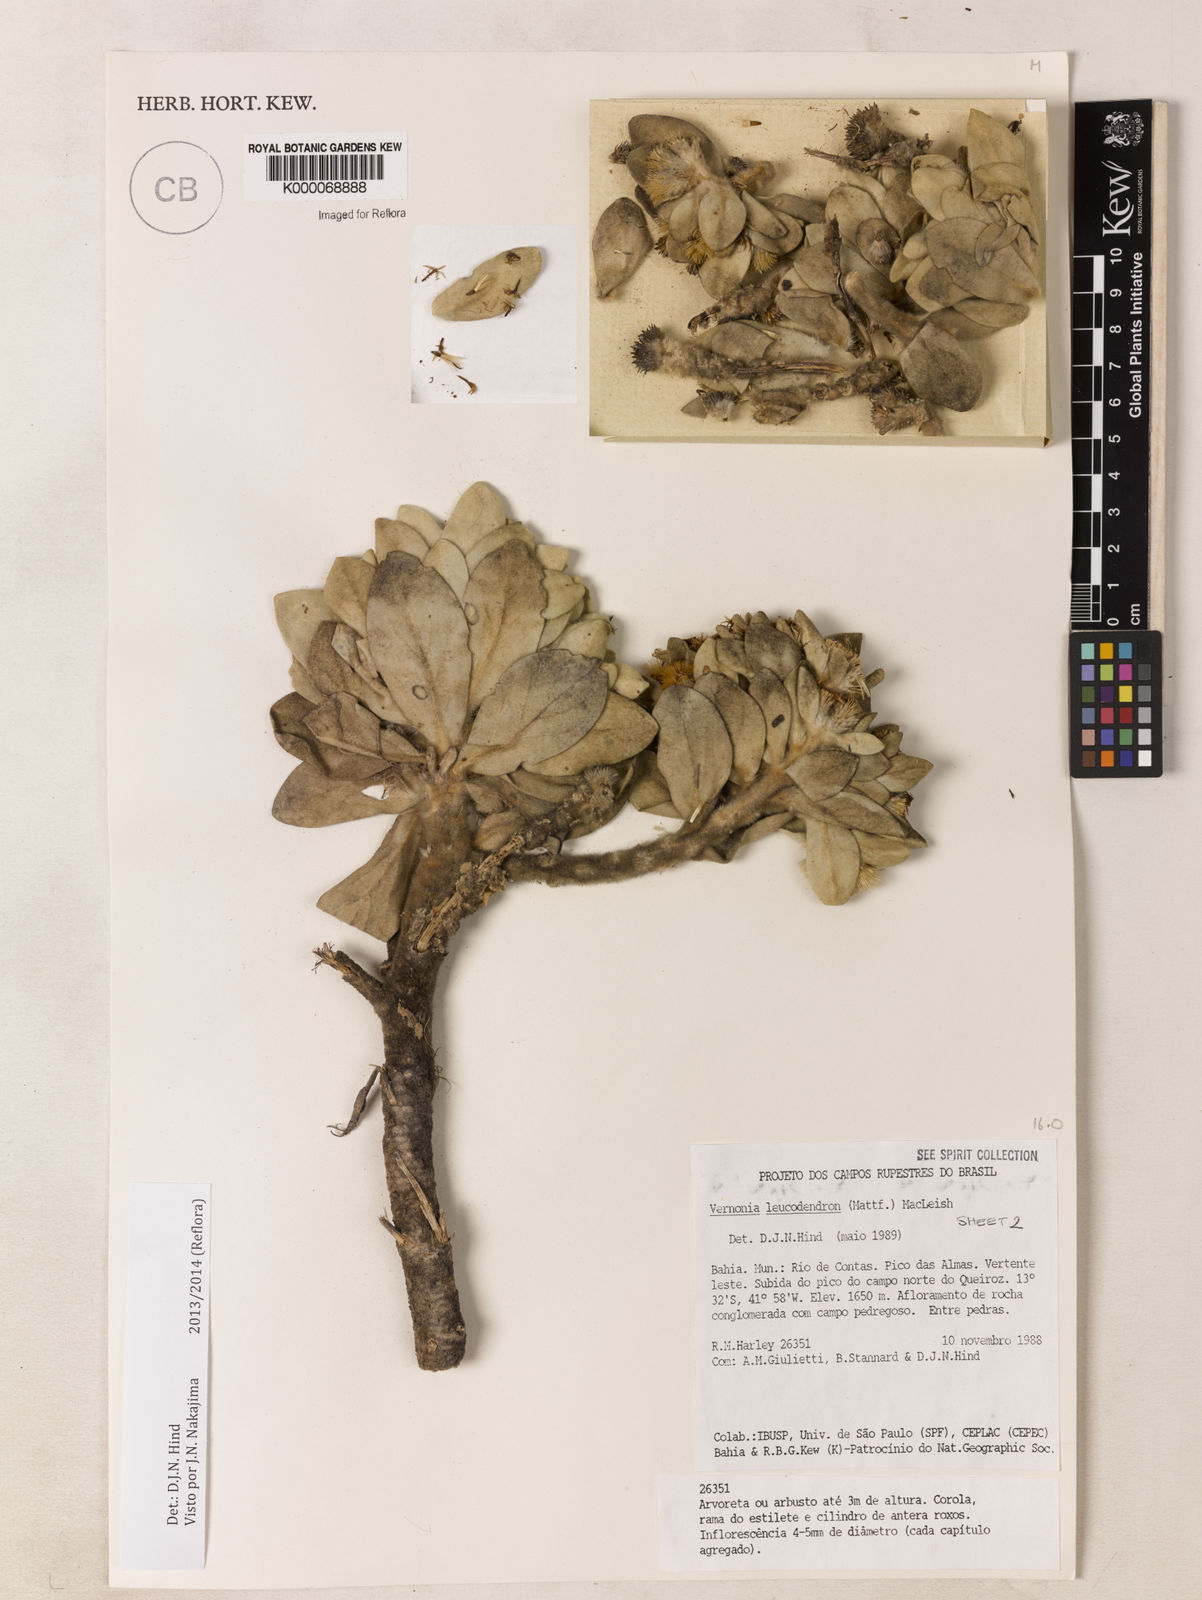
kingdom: Plantae
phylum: Tracheophyta
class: Magnoliopsida
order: Asterales
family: Asteraceae
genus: Lychnophorella
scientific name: Lychnophorella leucodendron
